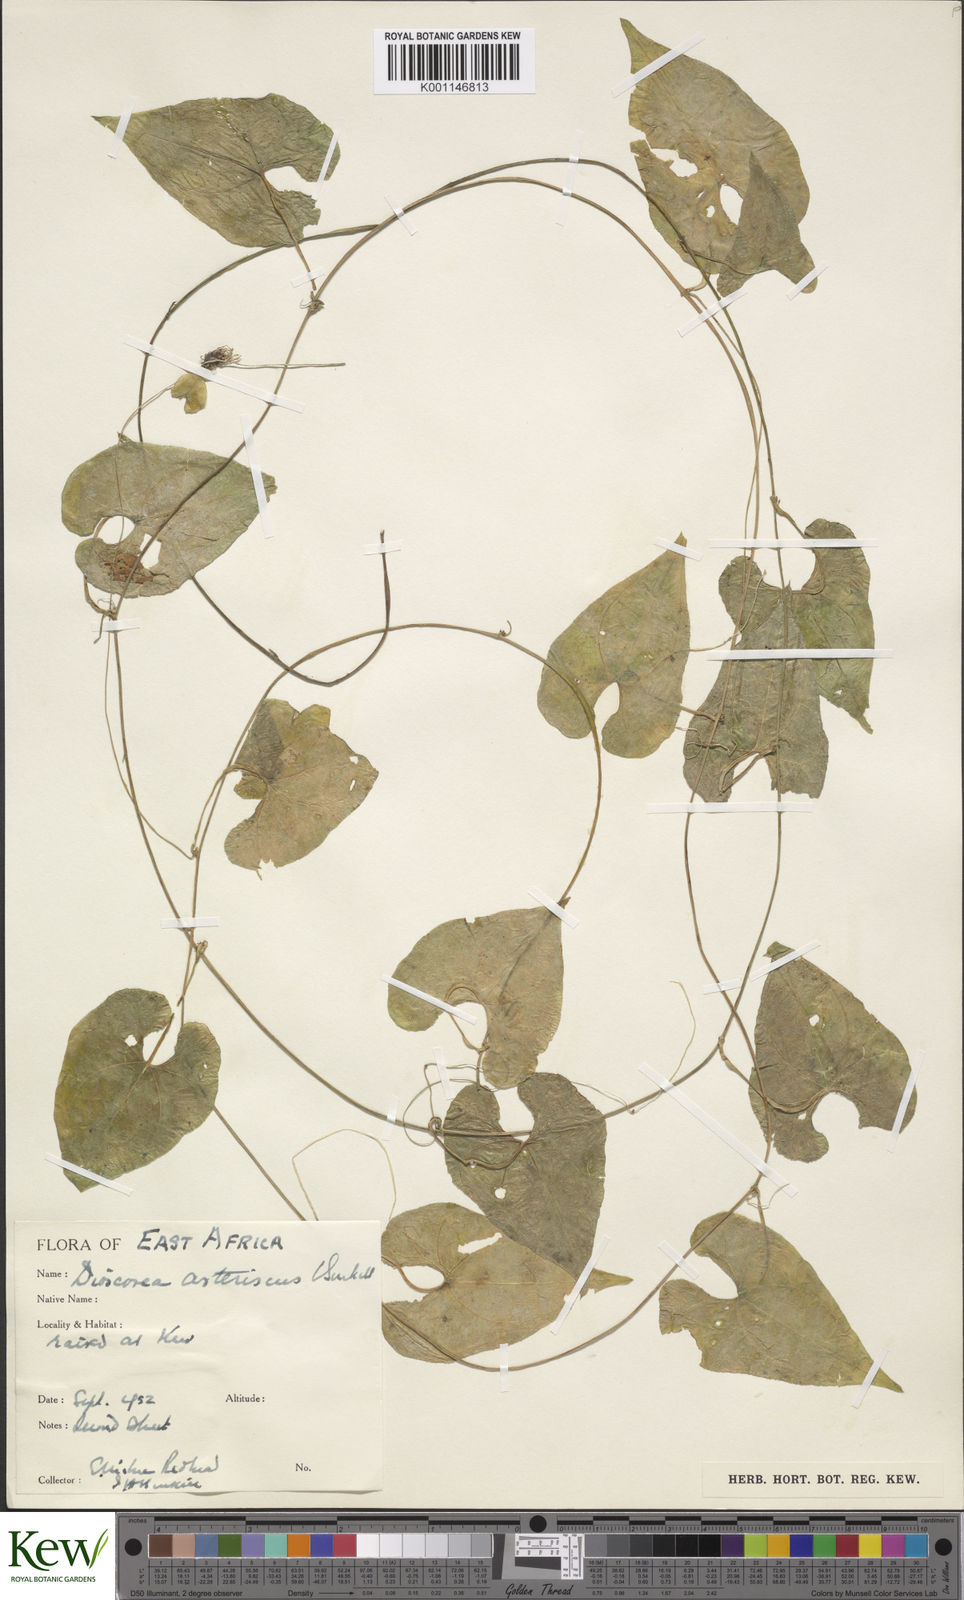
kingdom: Plantae
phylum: Tracheophyta
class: Liliopsida
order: Dioscoreales
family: Dioscoreaceae
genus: Dioscorea
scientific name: Dioscorea asteriscus
